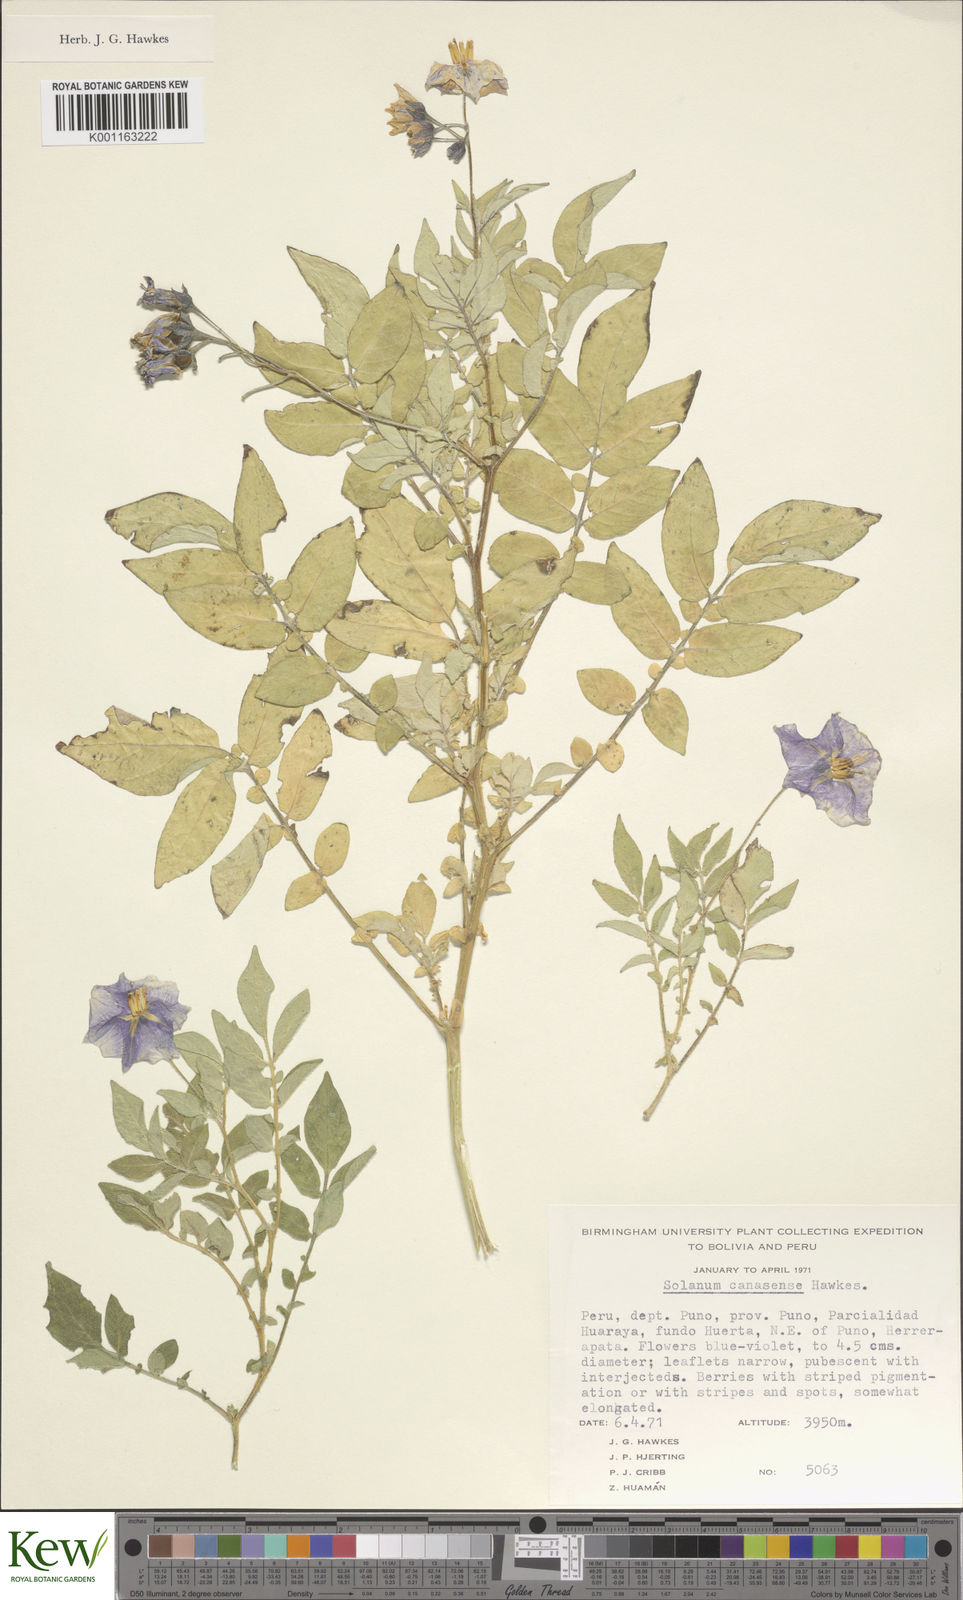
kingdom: Plantae
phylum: Tracheophyta
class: Magnoliopsida
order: Solanales
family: Solanaceae
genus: Solanum
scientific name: Solanum candolleanum
